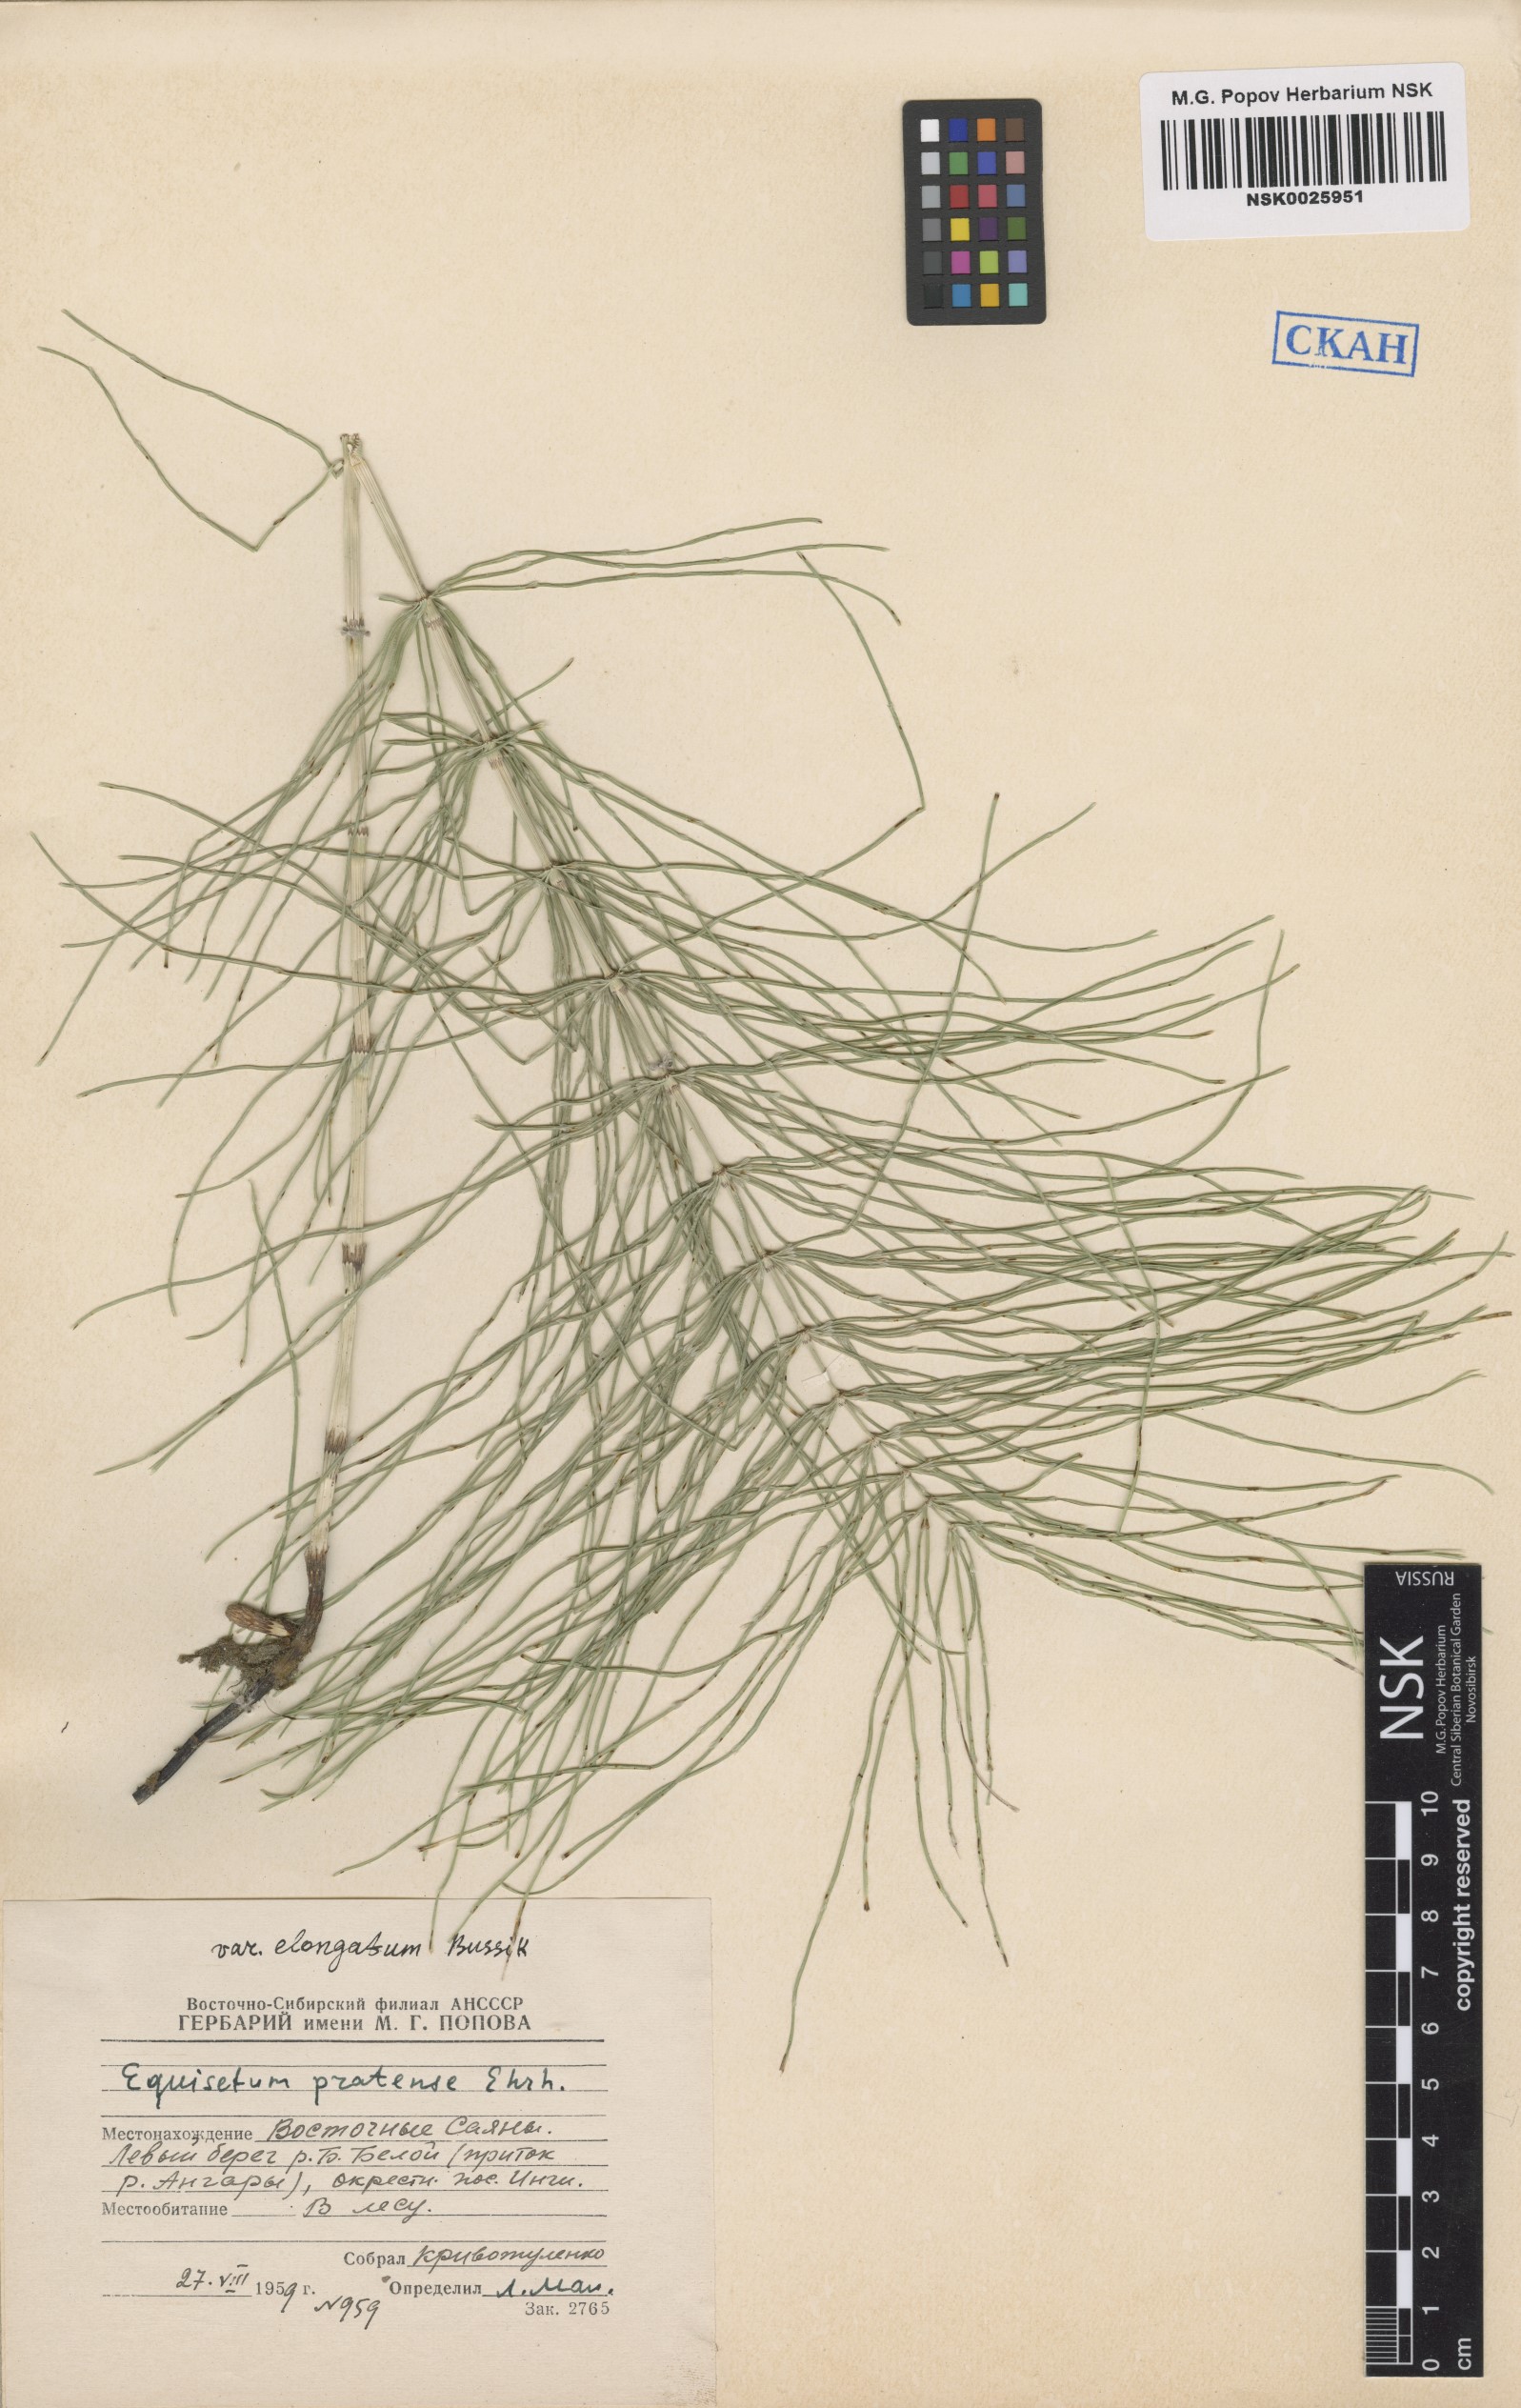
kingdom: Plantae
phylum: Tracheophyta
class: Polypodiopsida
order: Equisetales
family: Equisetaceae
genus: Equisetum
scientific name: Equisetum pratense
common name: Meadow horsetail
